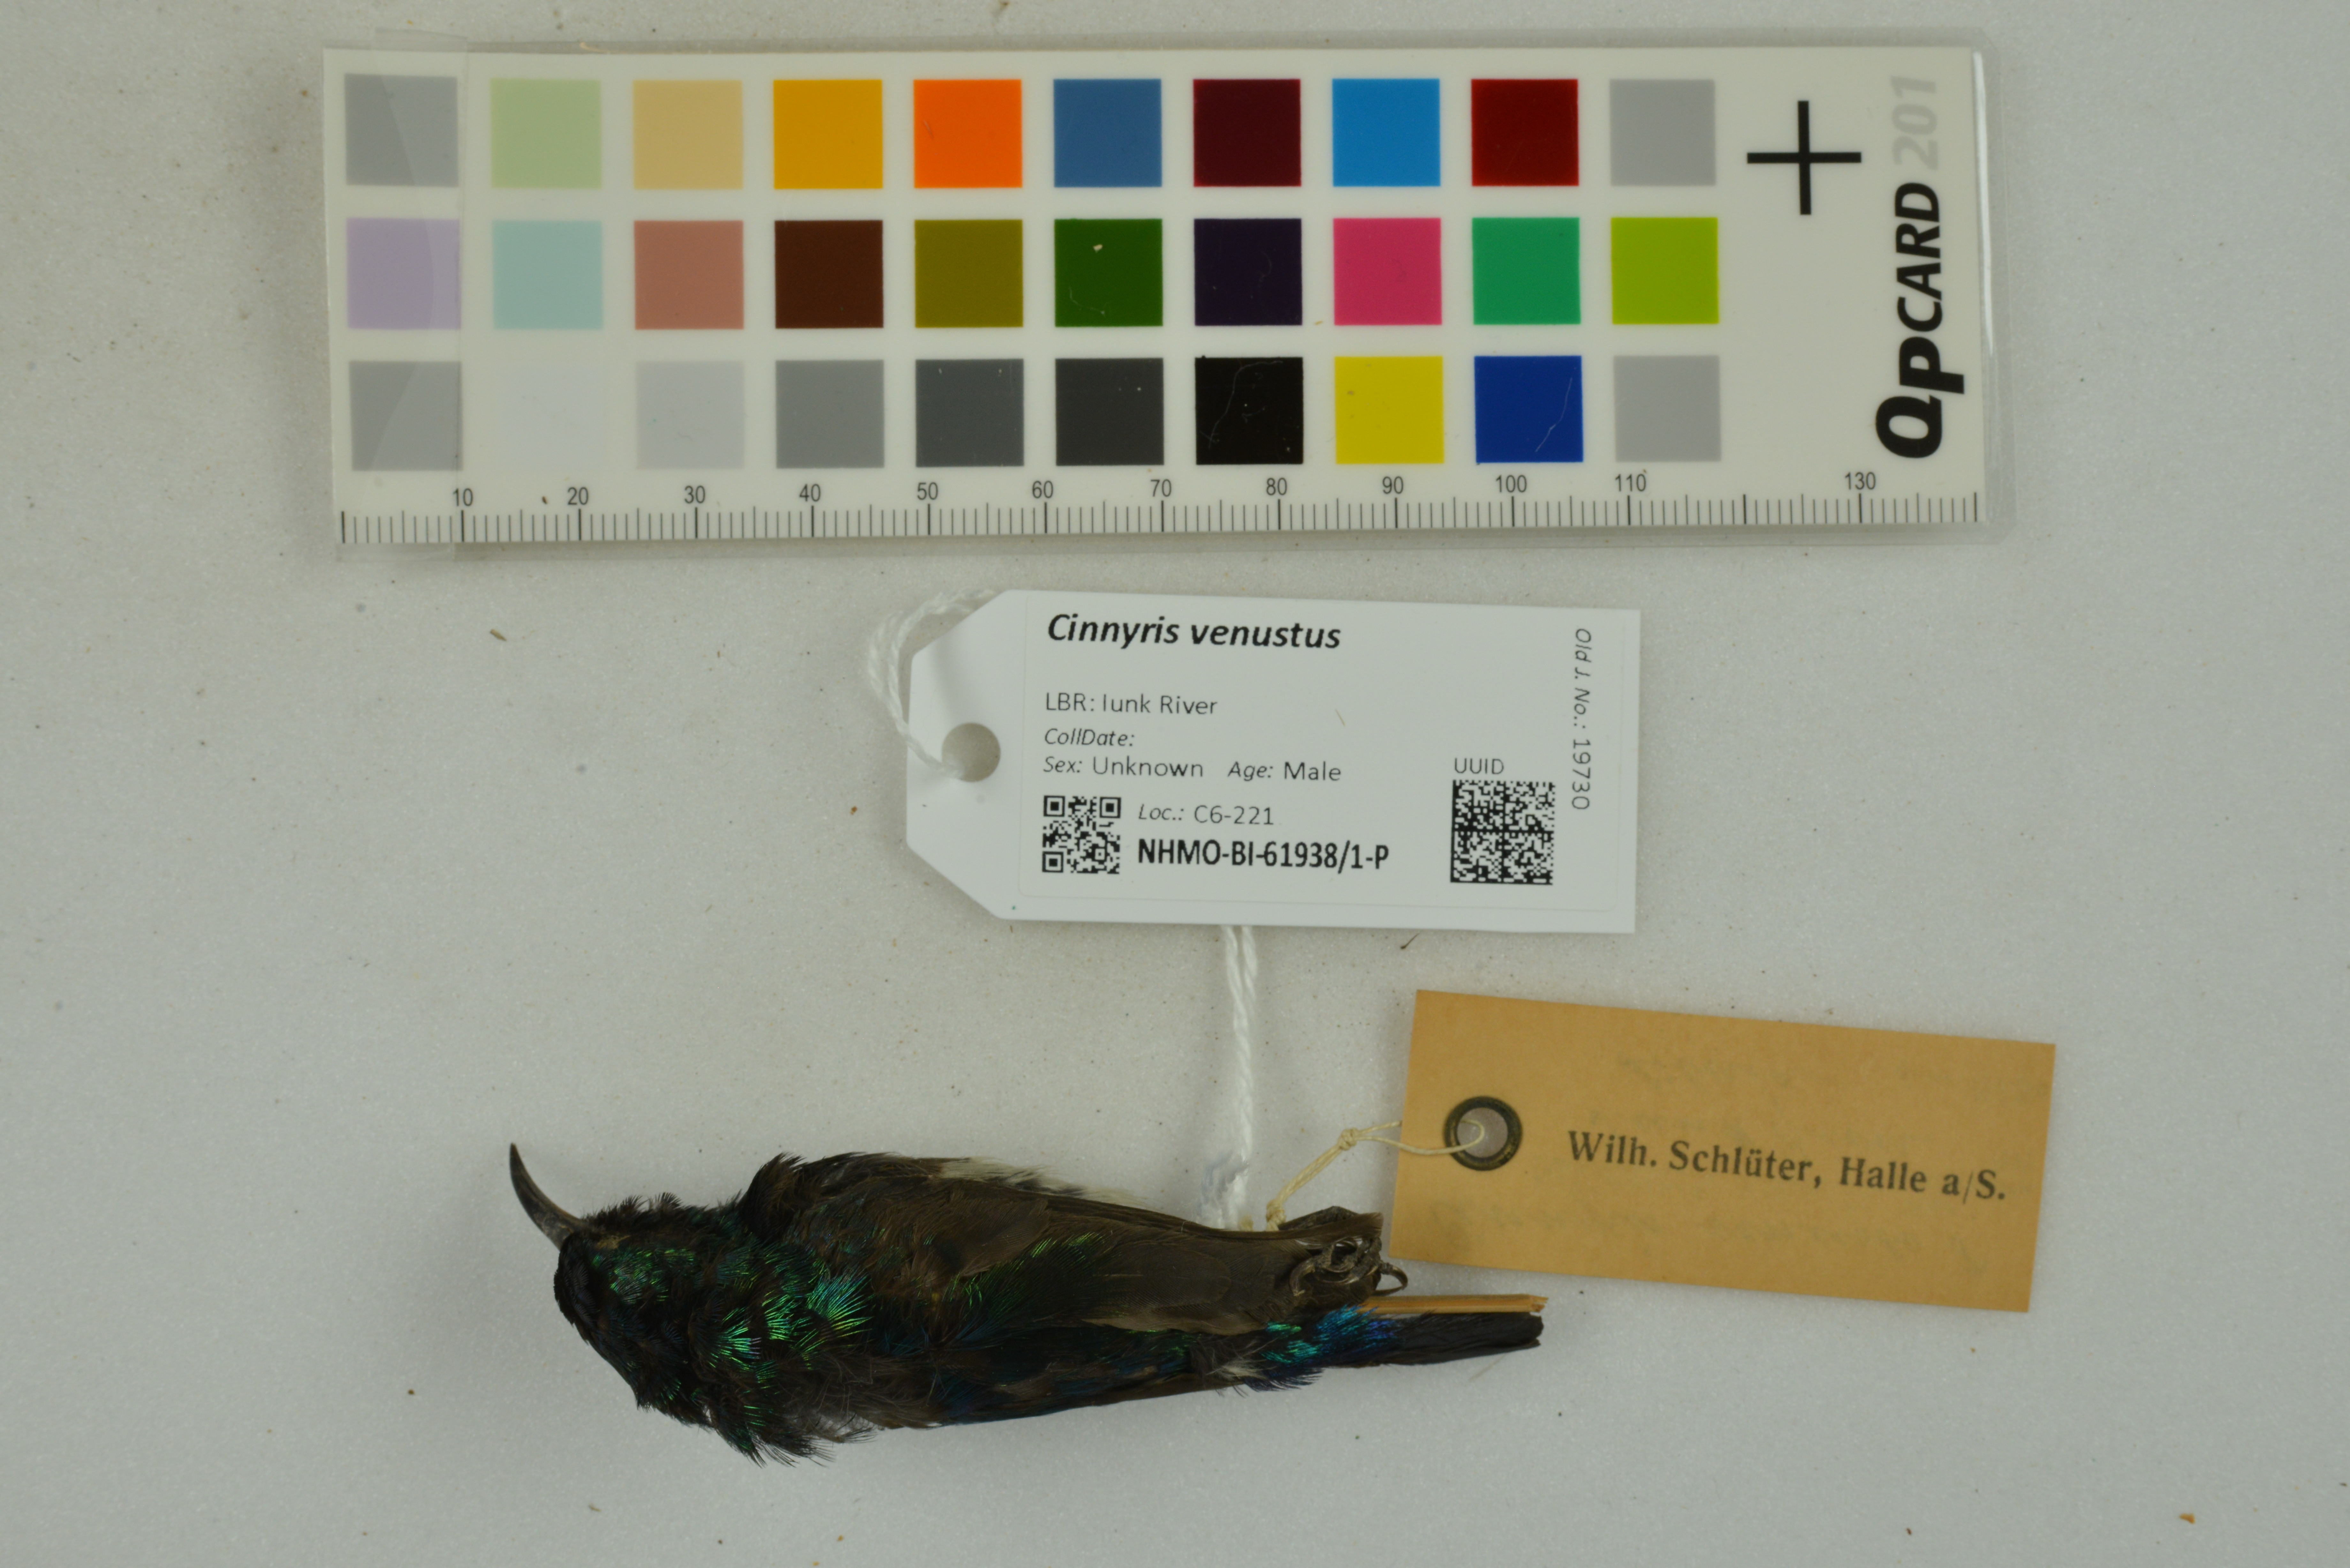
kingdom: Animalia
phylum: Chordata
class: Aves
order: Passeriformes
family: Nectariniidae
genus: Cinnyris
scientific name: Cinnyris venustus
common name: Variable sunbird
